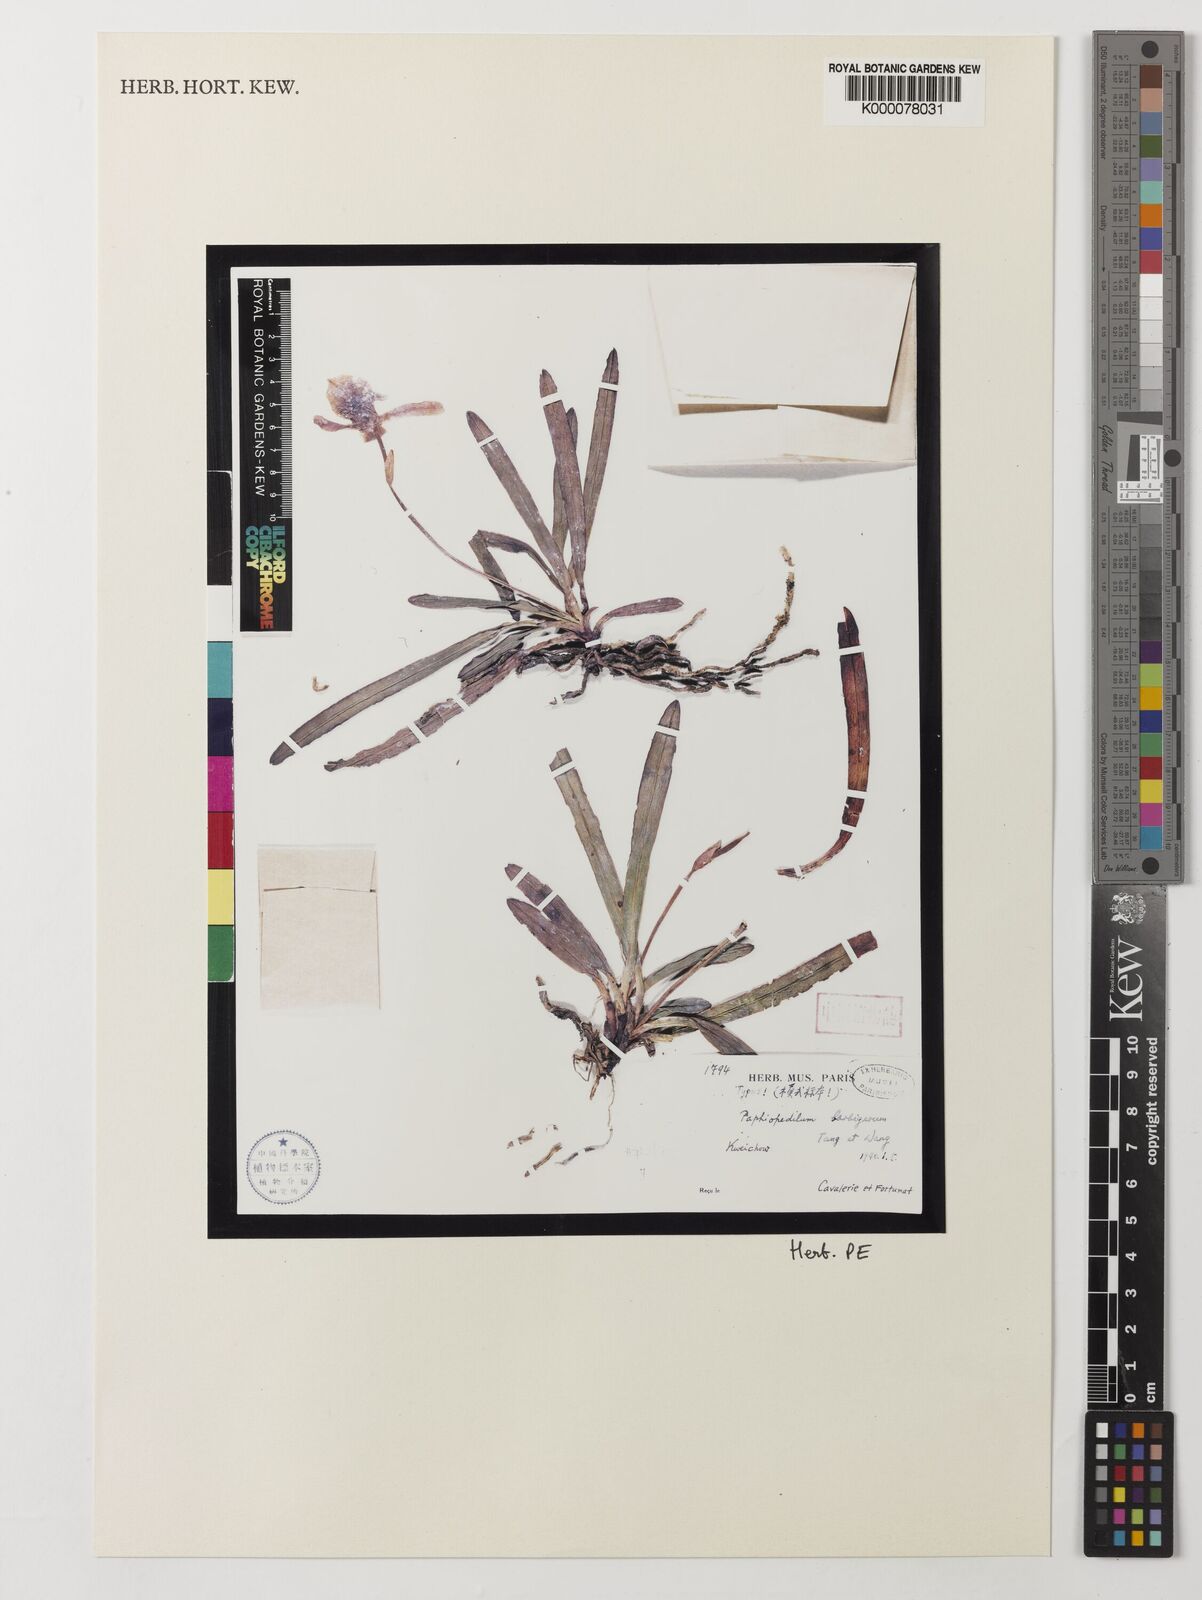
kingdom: Plantae
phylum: Tracheophyta
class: Liliopsida
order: Asparagales
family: Orchidaceae
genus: Paphiopedilum
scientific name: Paphiopedilum barbigerum
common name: Beard carrying paphiopedilum
